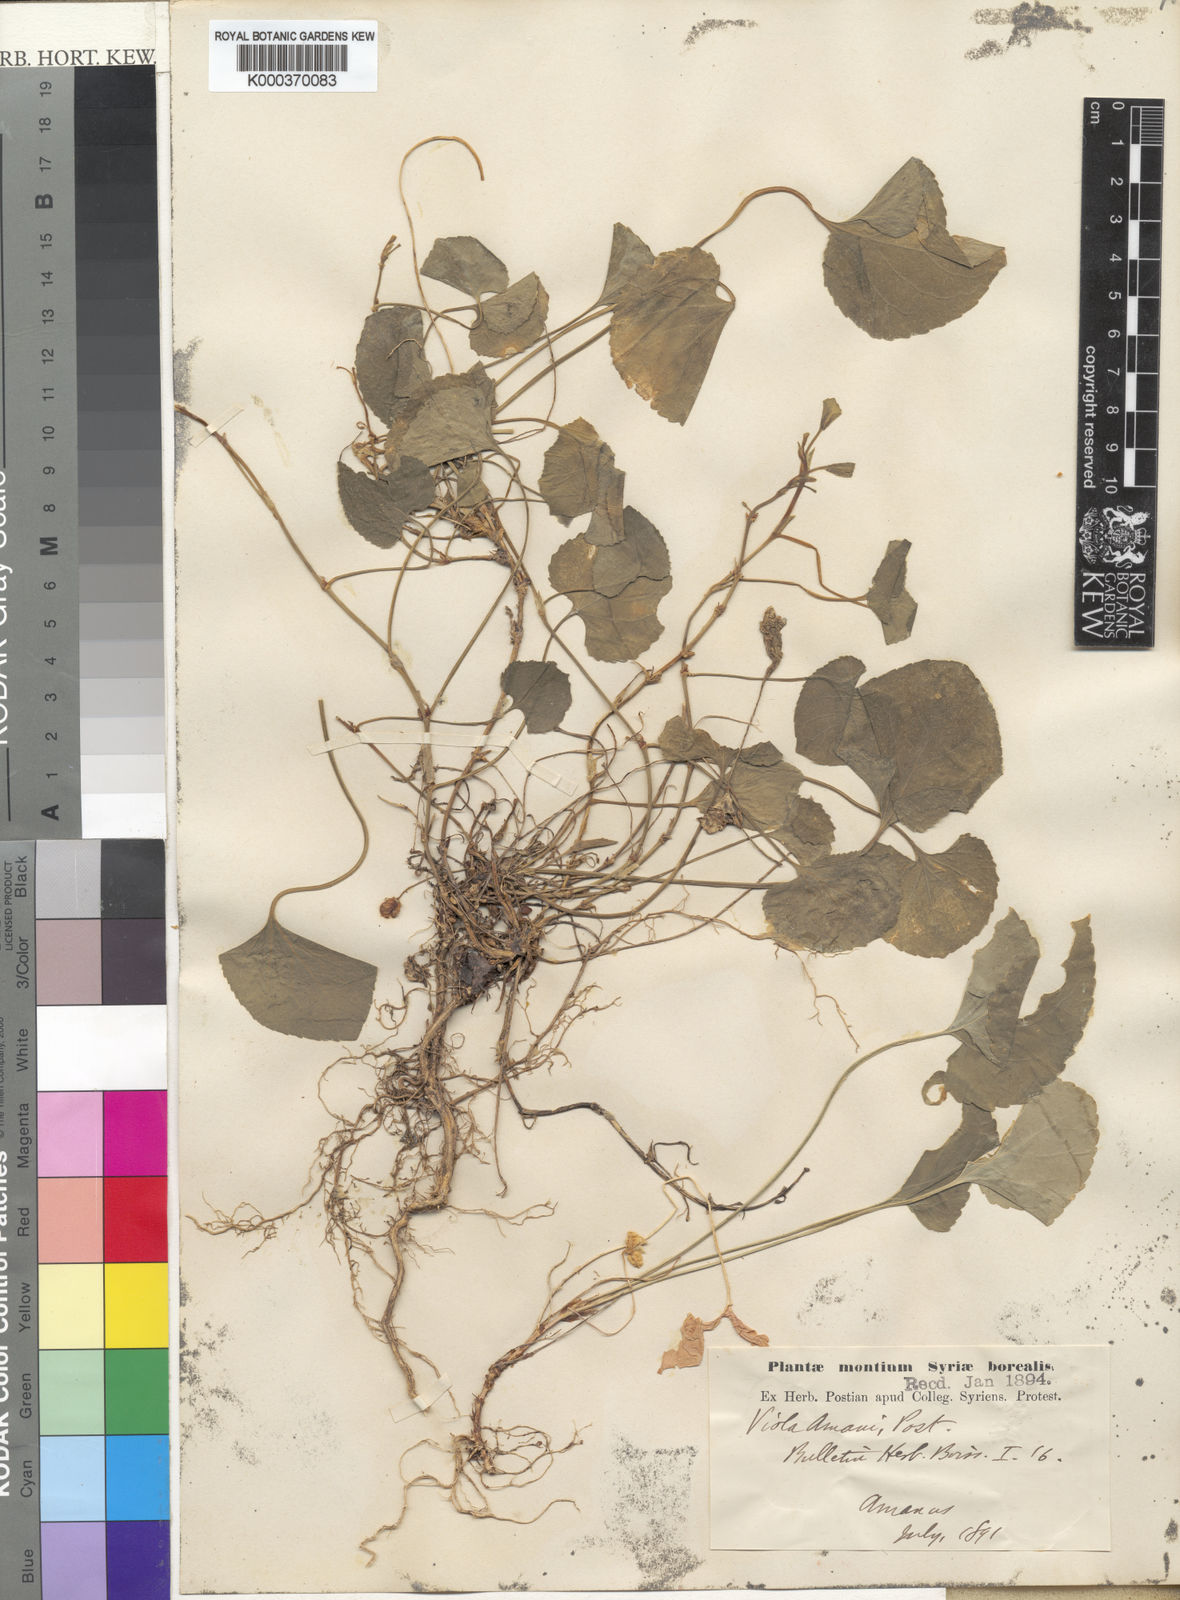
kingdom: Plantae
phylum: Tracheophyta
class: Magnoliopsida
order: Malpighiales
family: Violaceae
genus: Viola
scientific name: Viola amani
